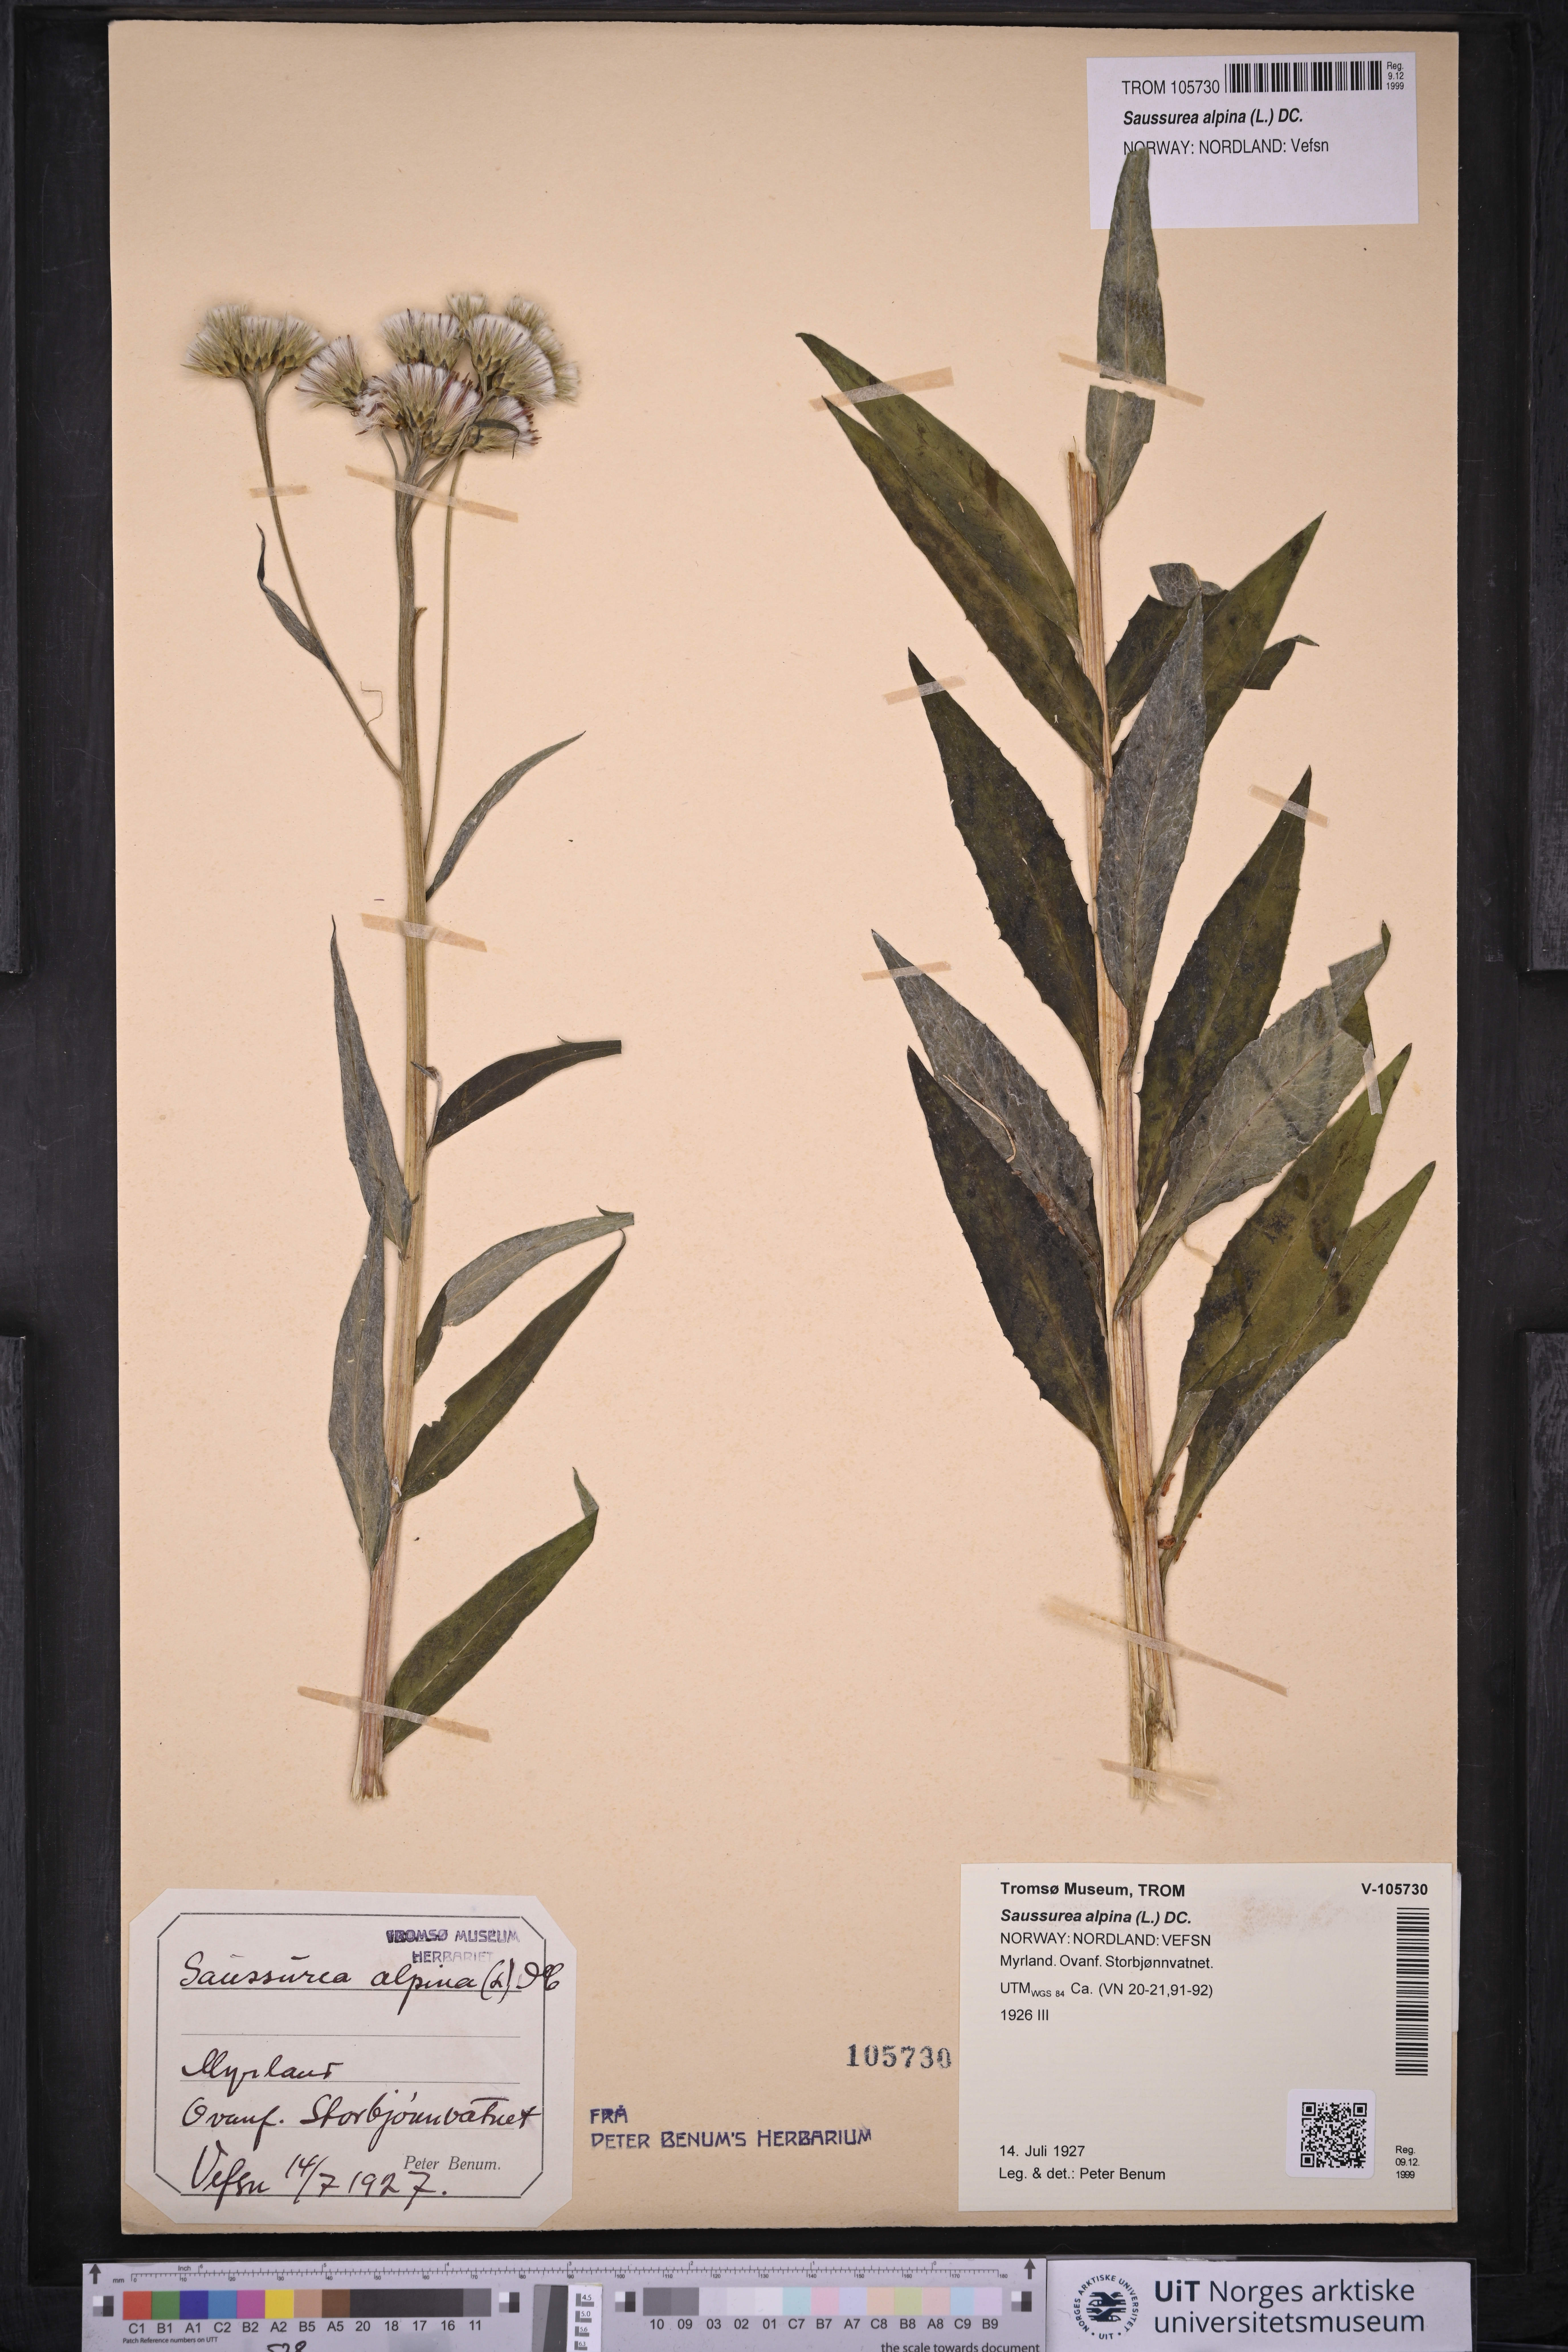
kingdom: Plantae
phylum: Tracheophyta
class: Magnoliopsida
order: Asterales
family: Asteraceae
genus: Saussurea
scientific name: Saussurea alpina
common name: Alpine saw-wort
